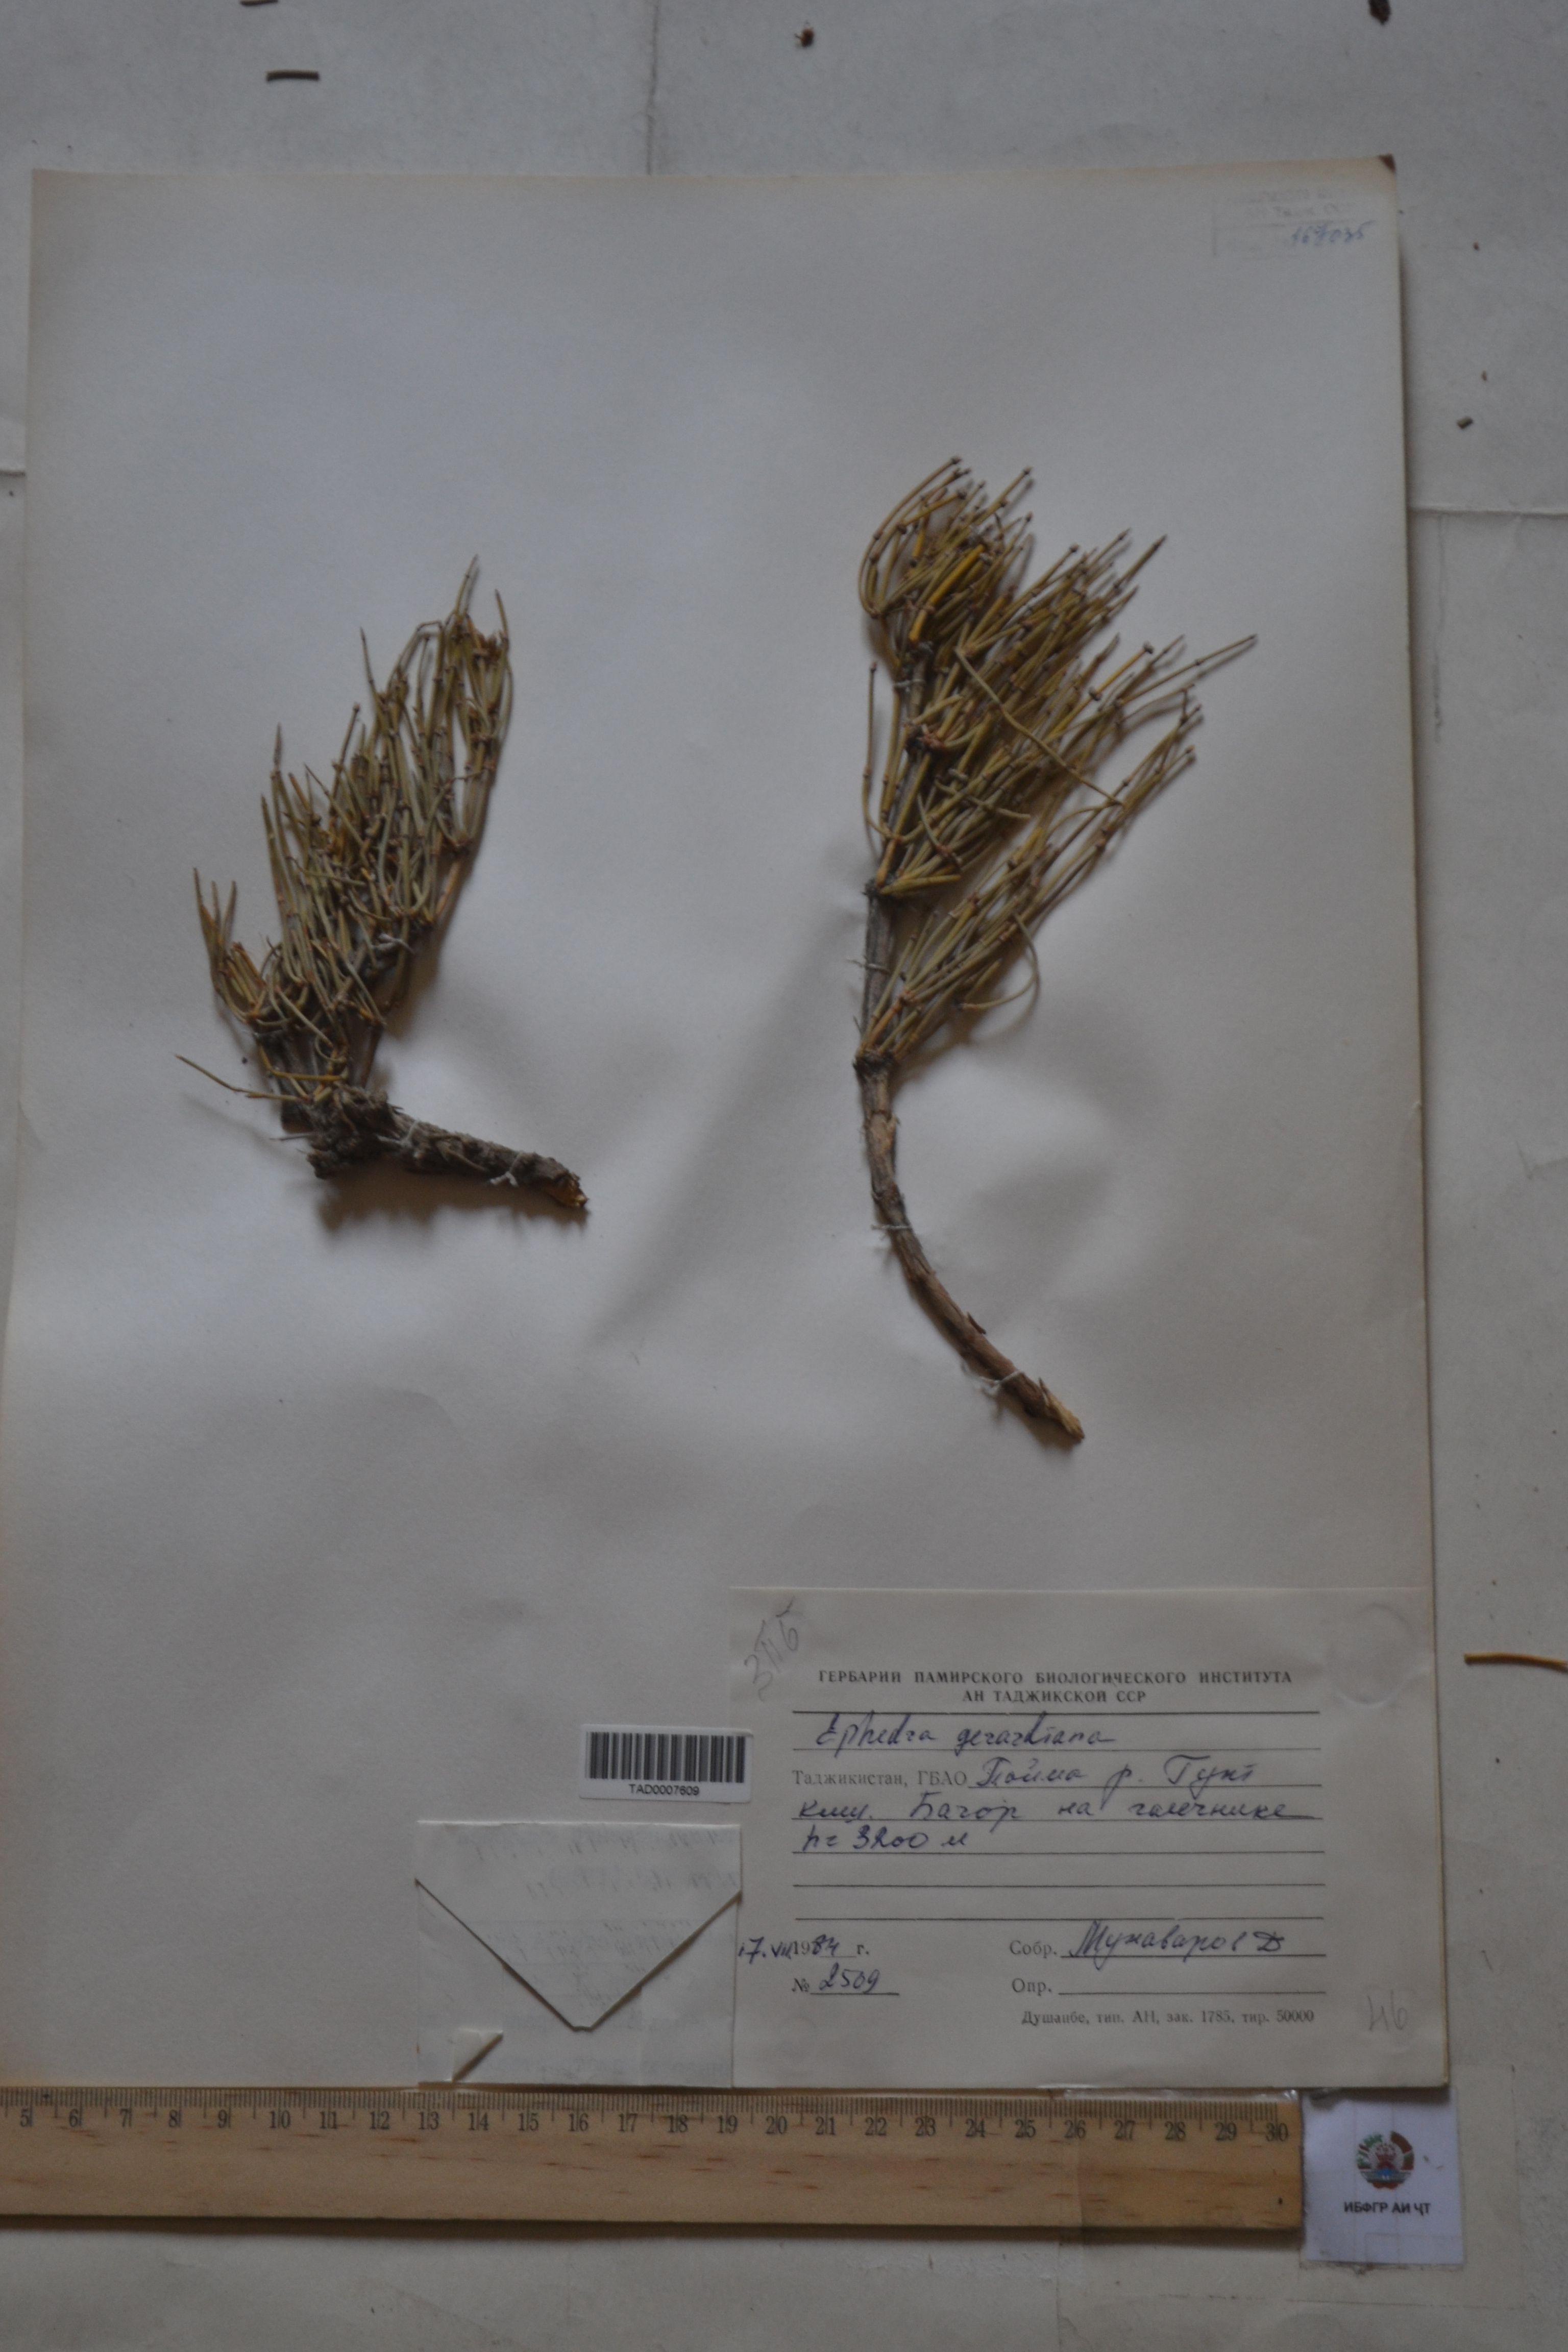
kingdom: Plantae
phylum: Tracheophyta
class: Gnetopsida
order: Ephedrales
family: Ephedraceae
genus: Ephedra
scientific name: Ephedra gerardiana
